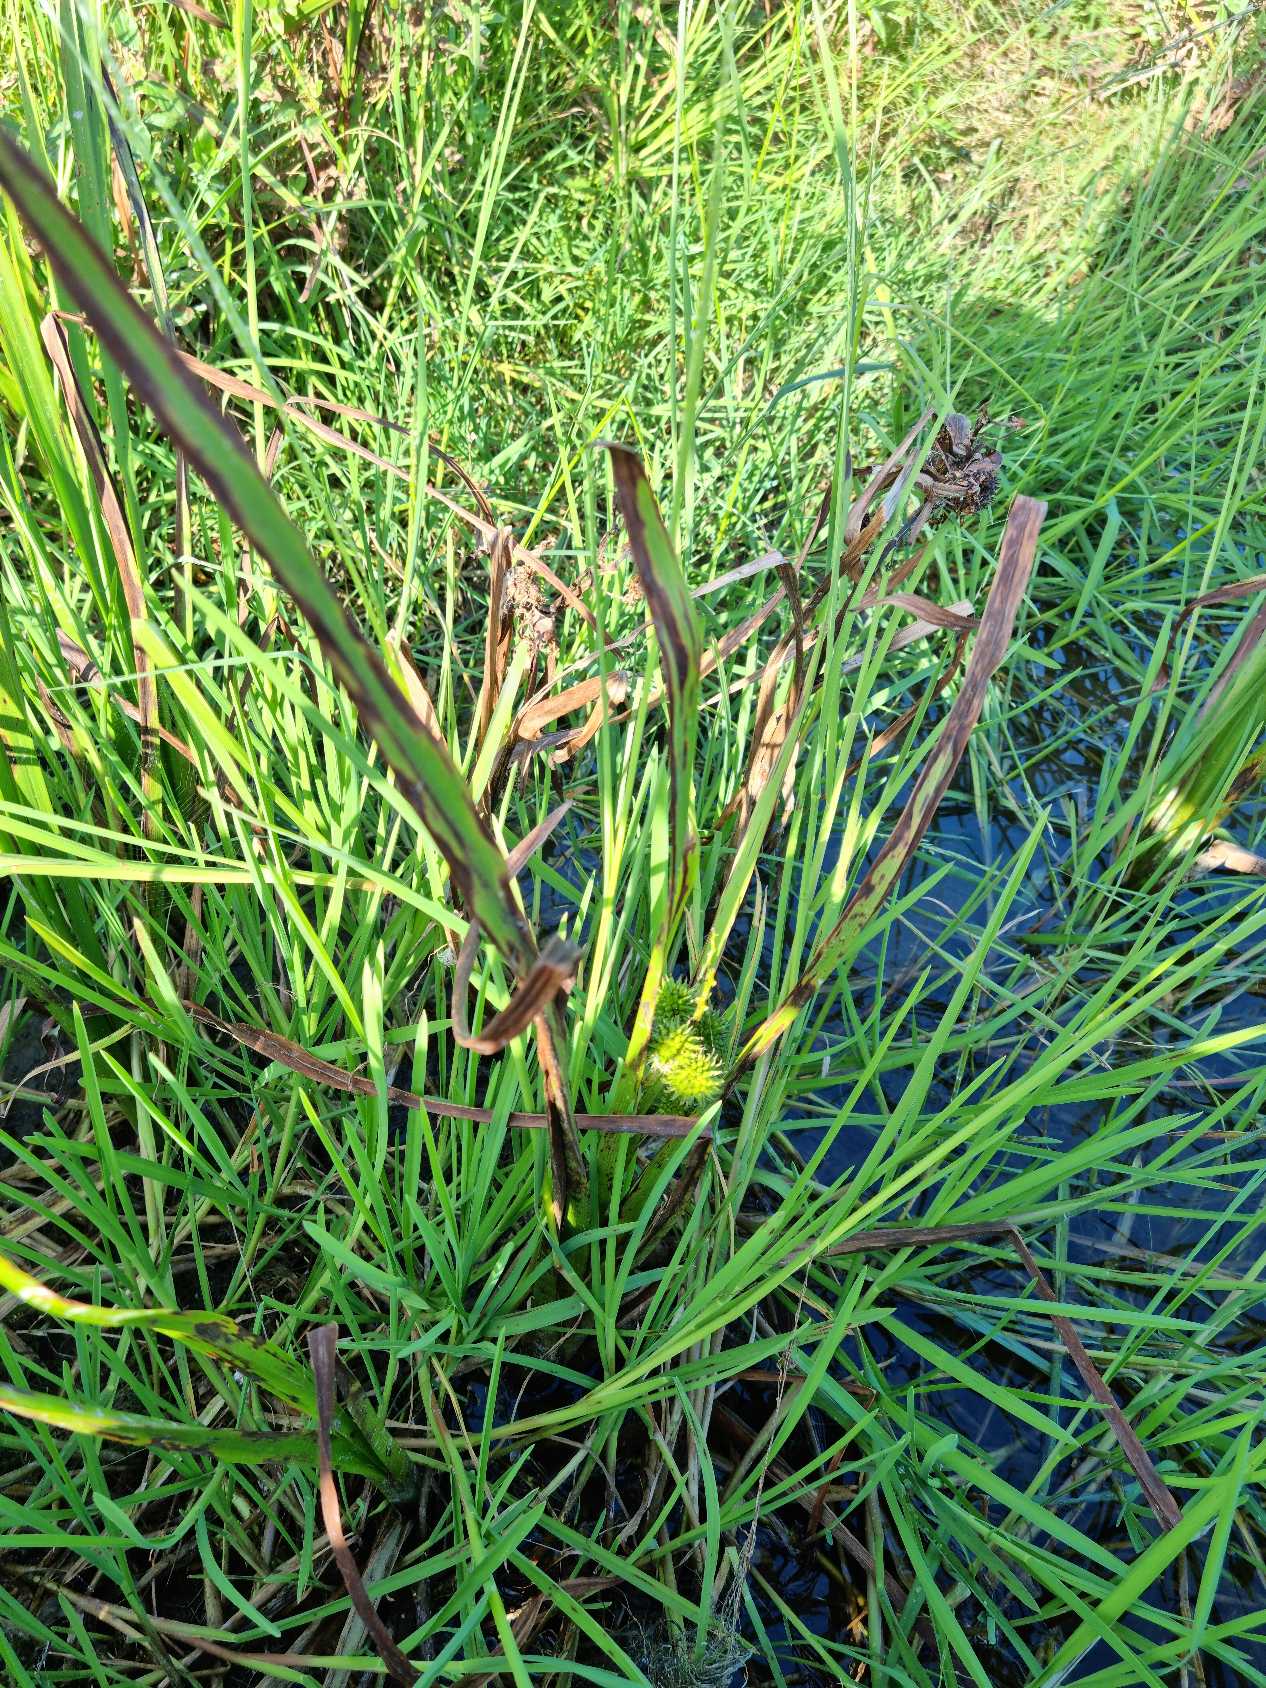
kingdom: Plantae
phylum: Tracheophyta
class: Liliopsida
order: Poales
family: Typhaceae
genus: Sparganium
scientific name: Sparganium erectum
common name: Grenet pindsvineknop
